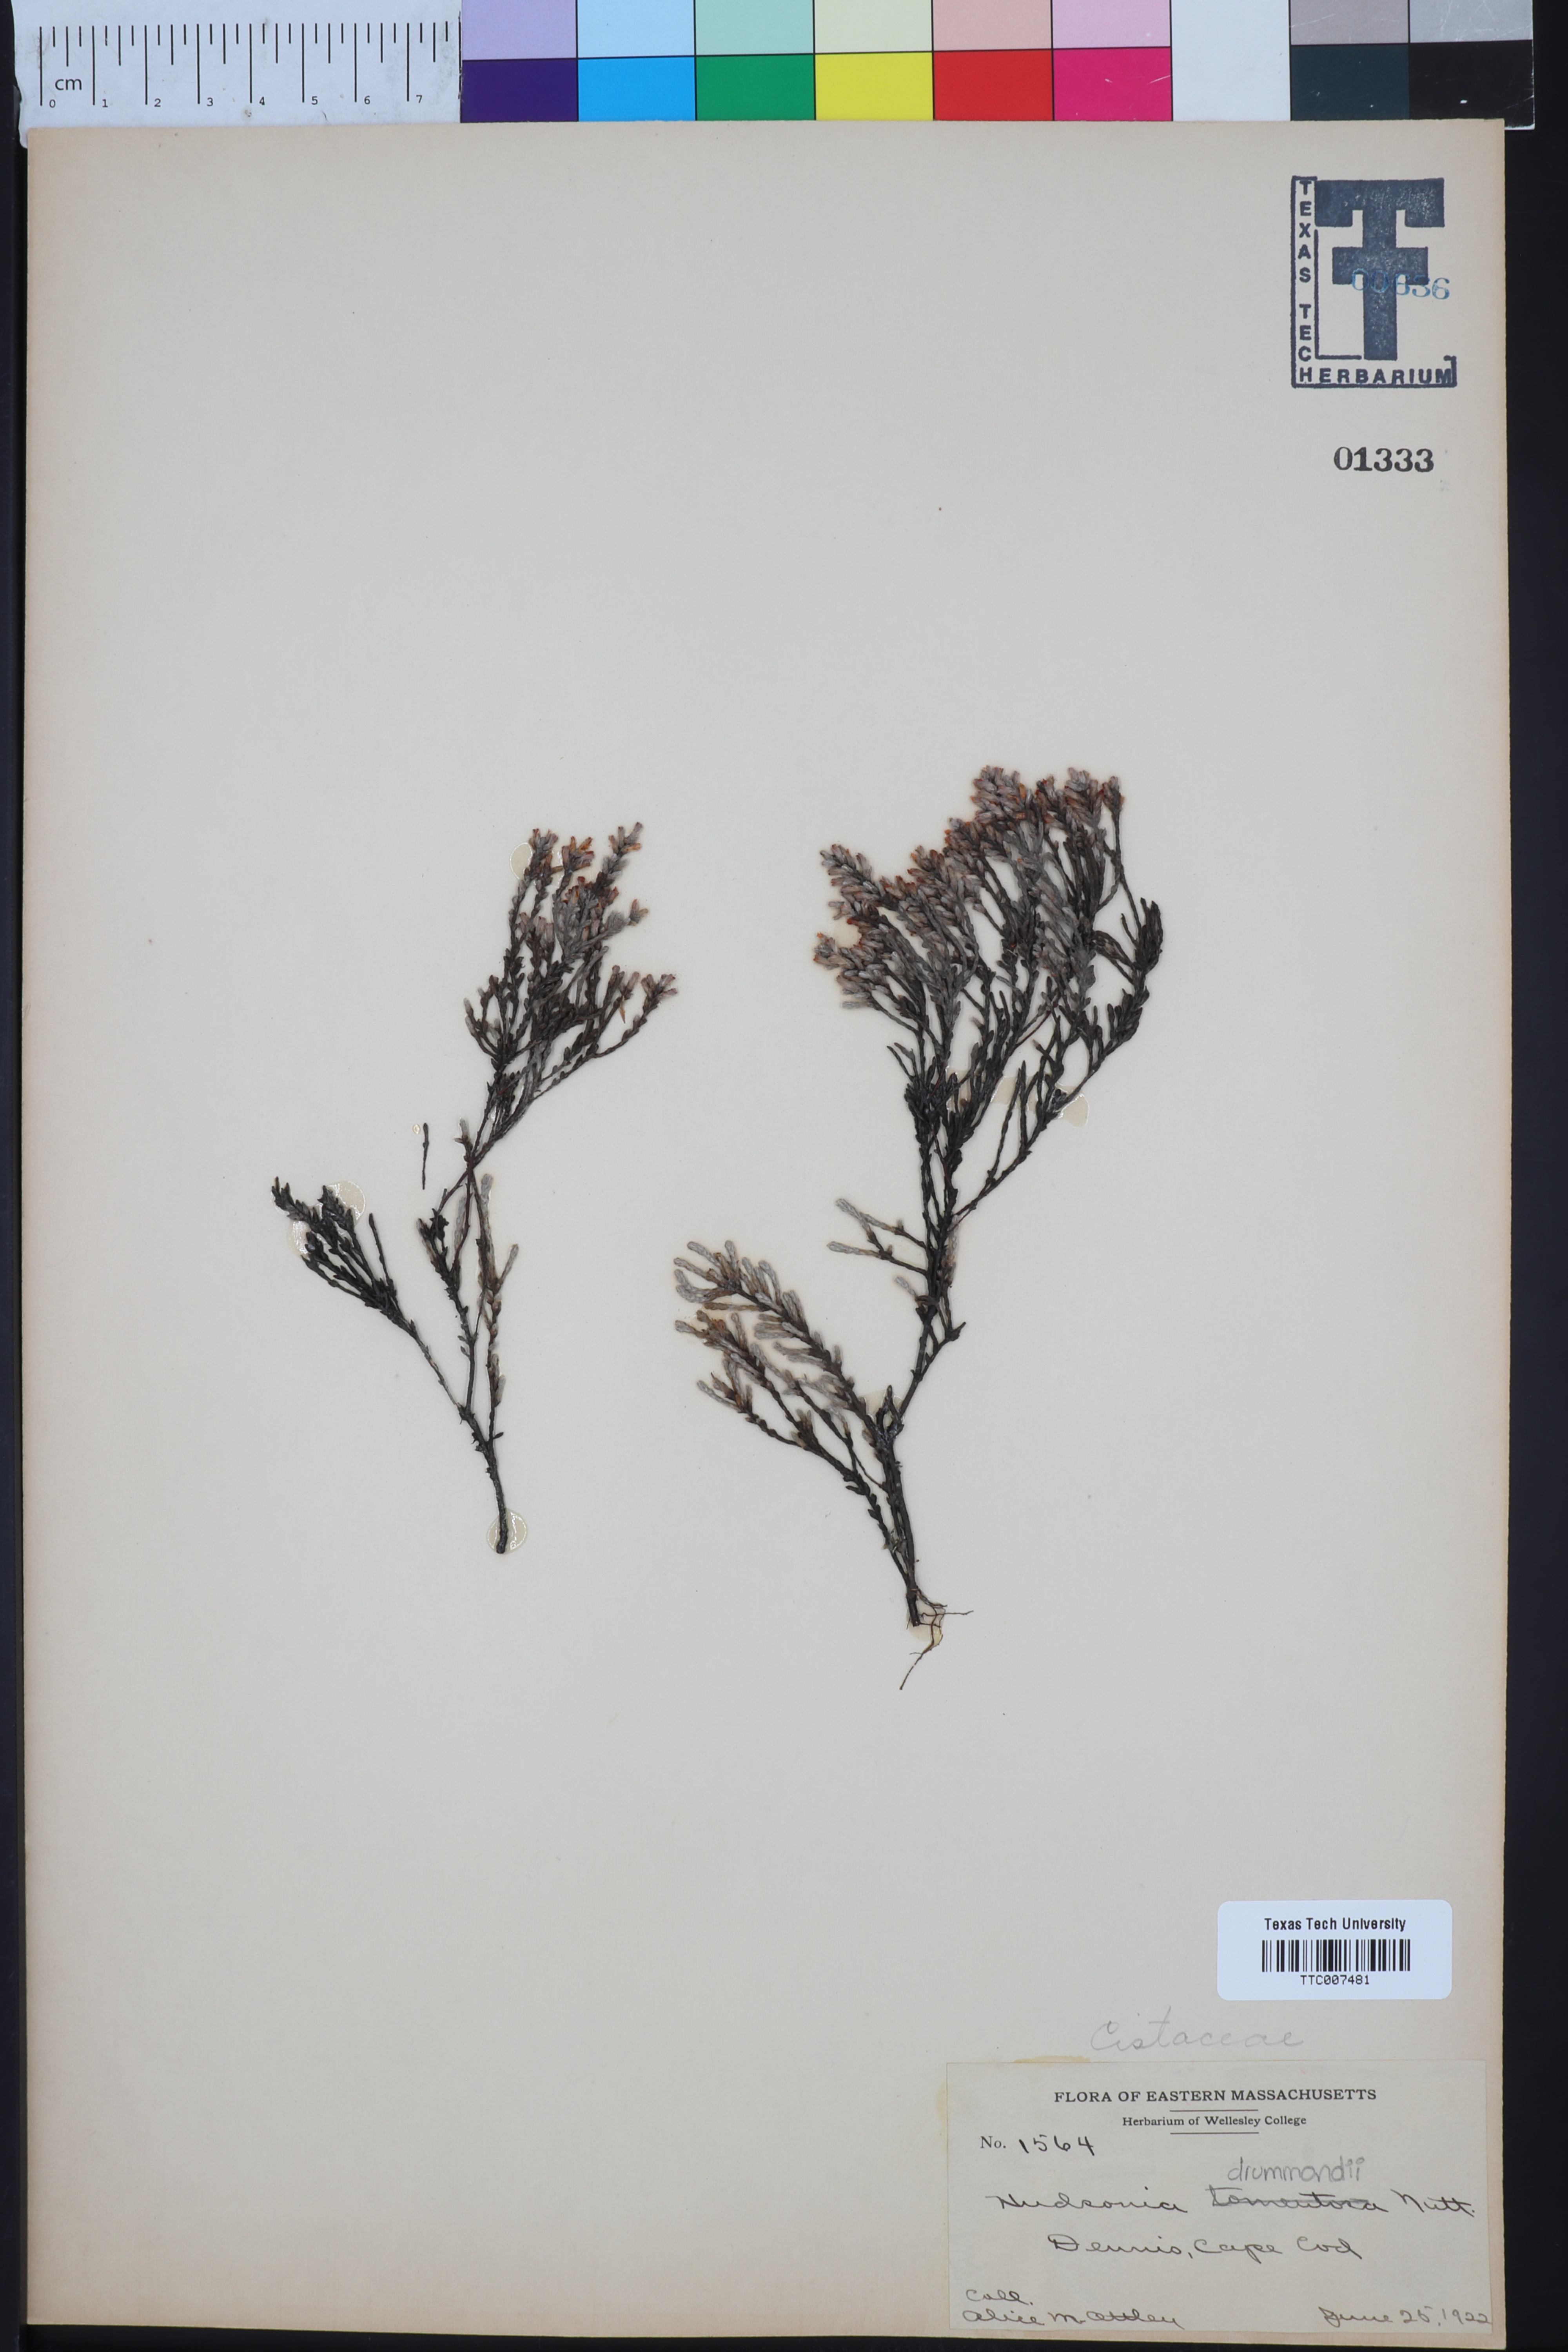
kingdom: Plantae
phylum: Tracheophyta
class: Magnoliopsida
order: Malvales
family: Cistaceae
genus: Hudsonia
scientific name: Hudsonia tomentosa
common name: Beach-heath
